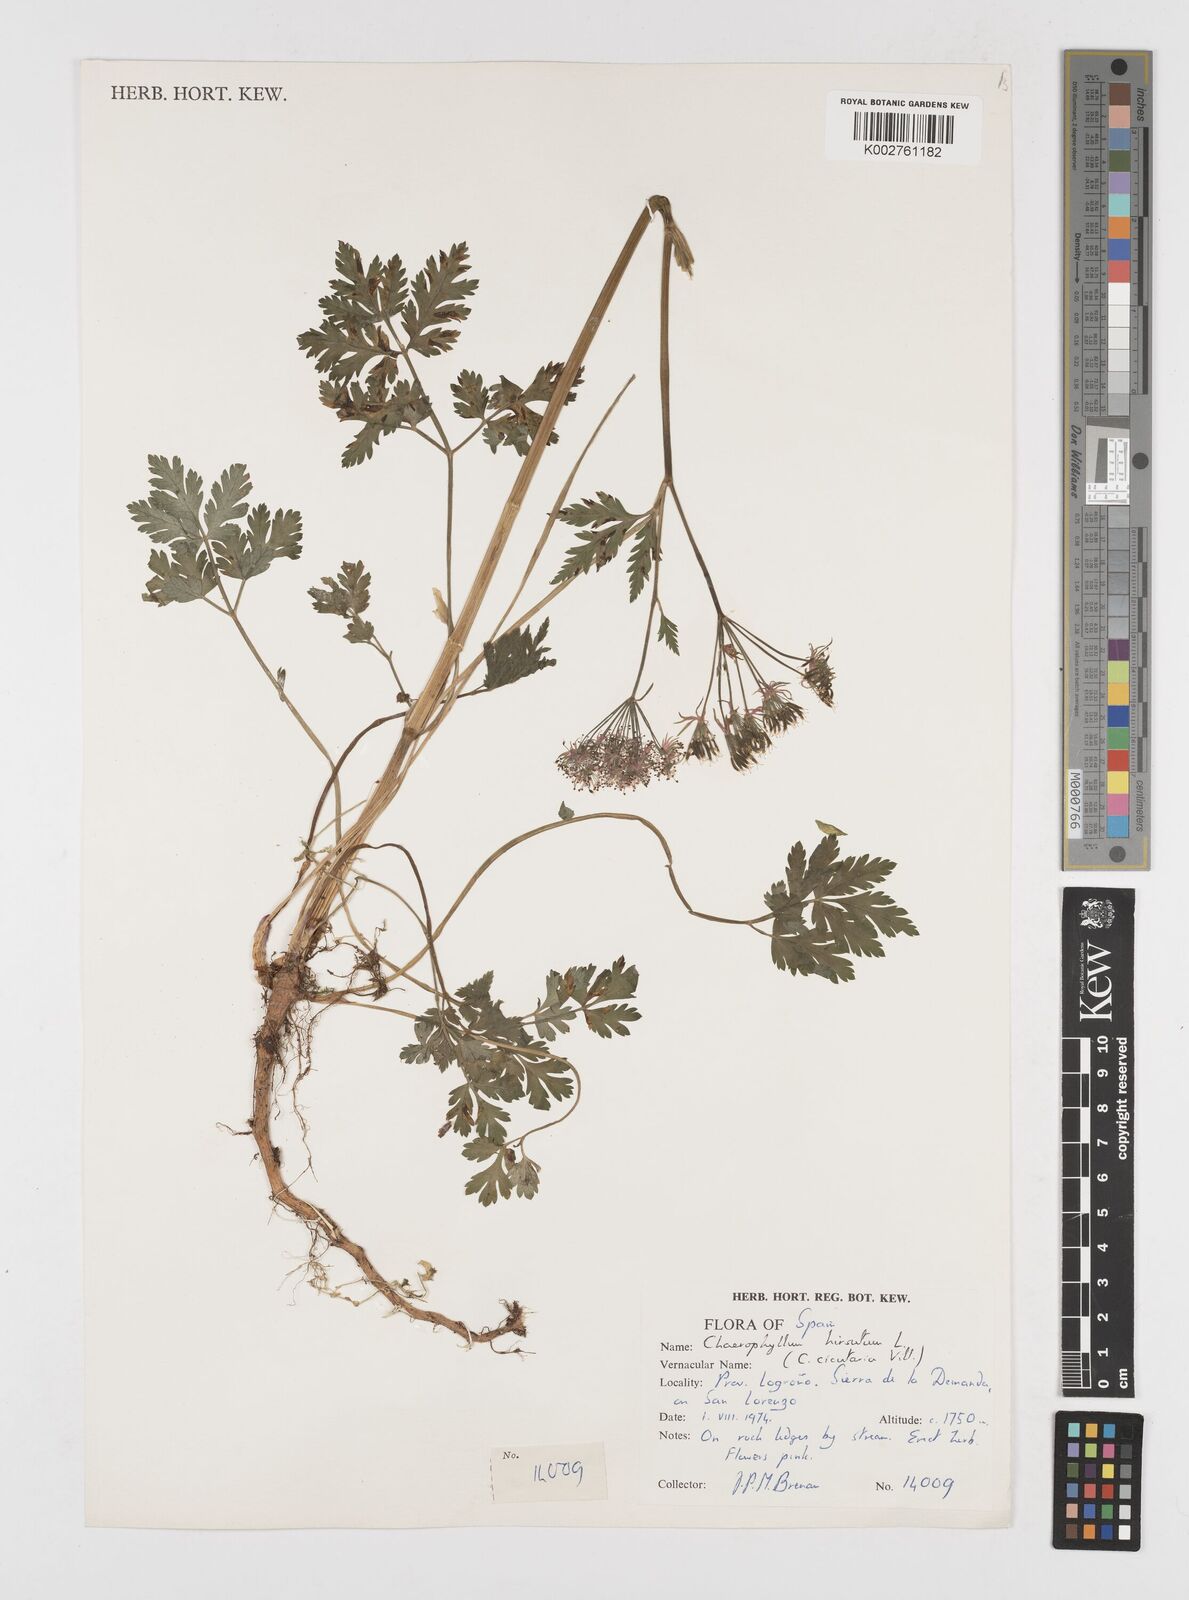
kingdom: Plantae
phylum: Tracheophyta
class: Magnoliopsida
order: Apiales
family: Apiaceae
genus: Chaerophyllum
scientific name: Chaerophyllum hirsutum
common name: Hairy chervil
